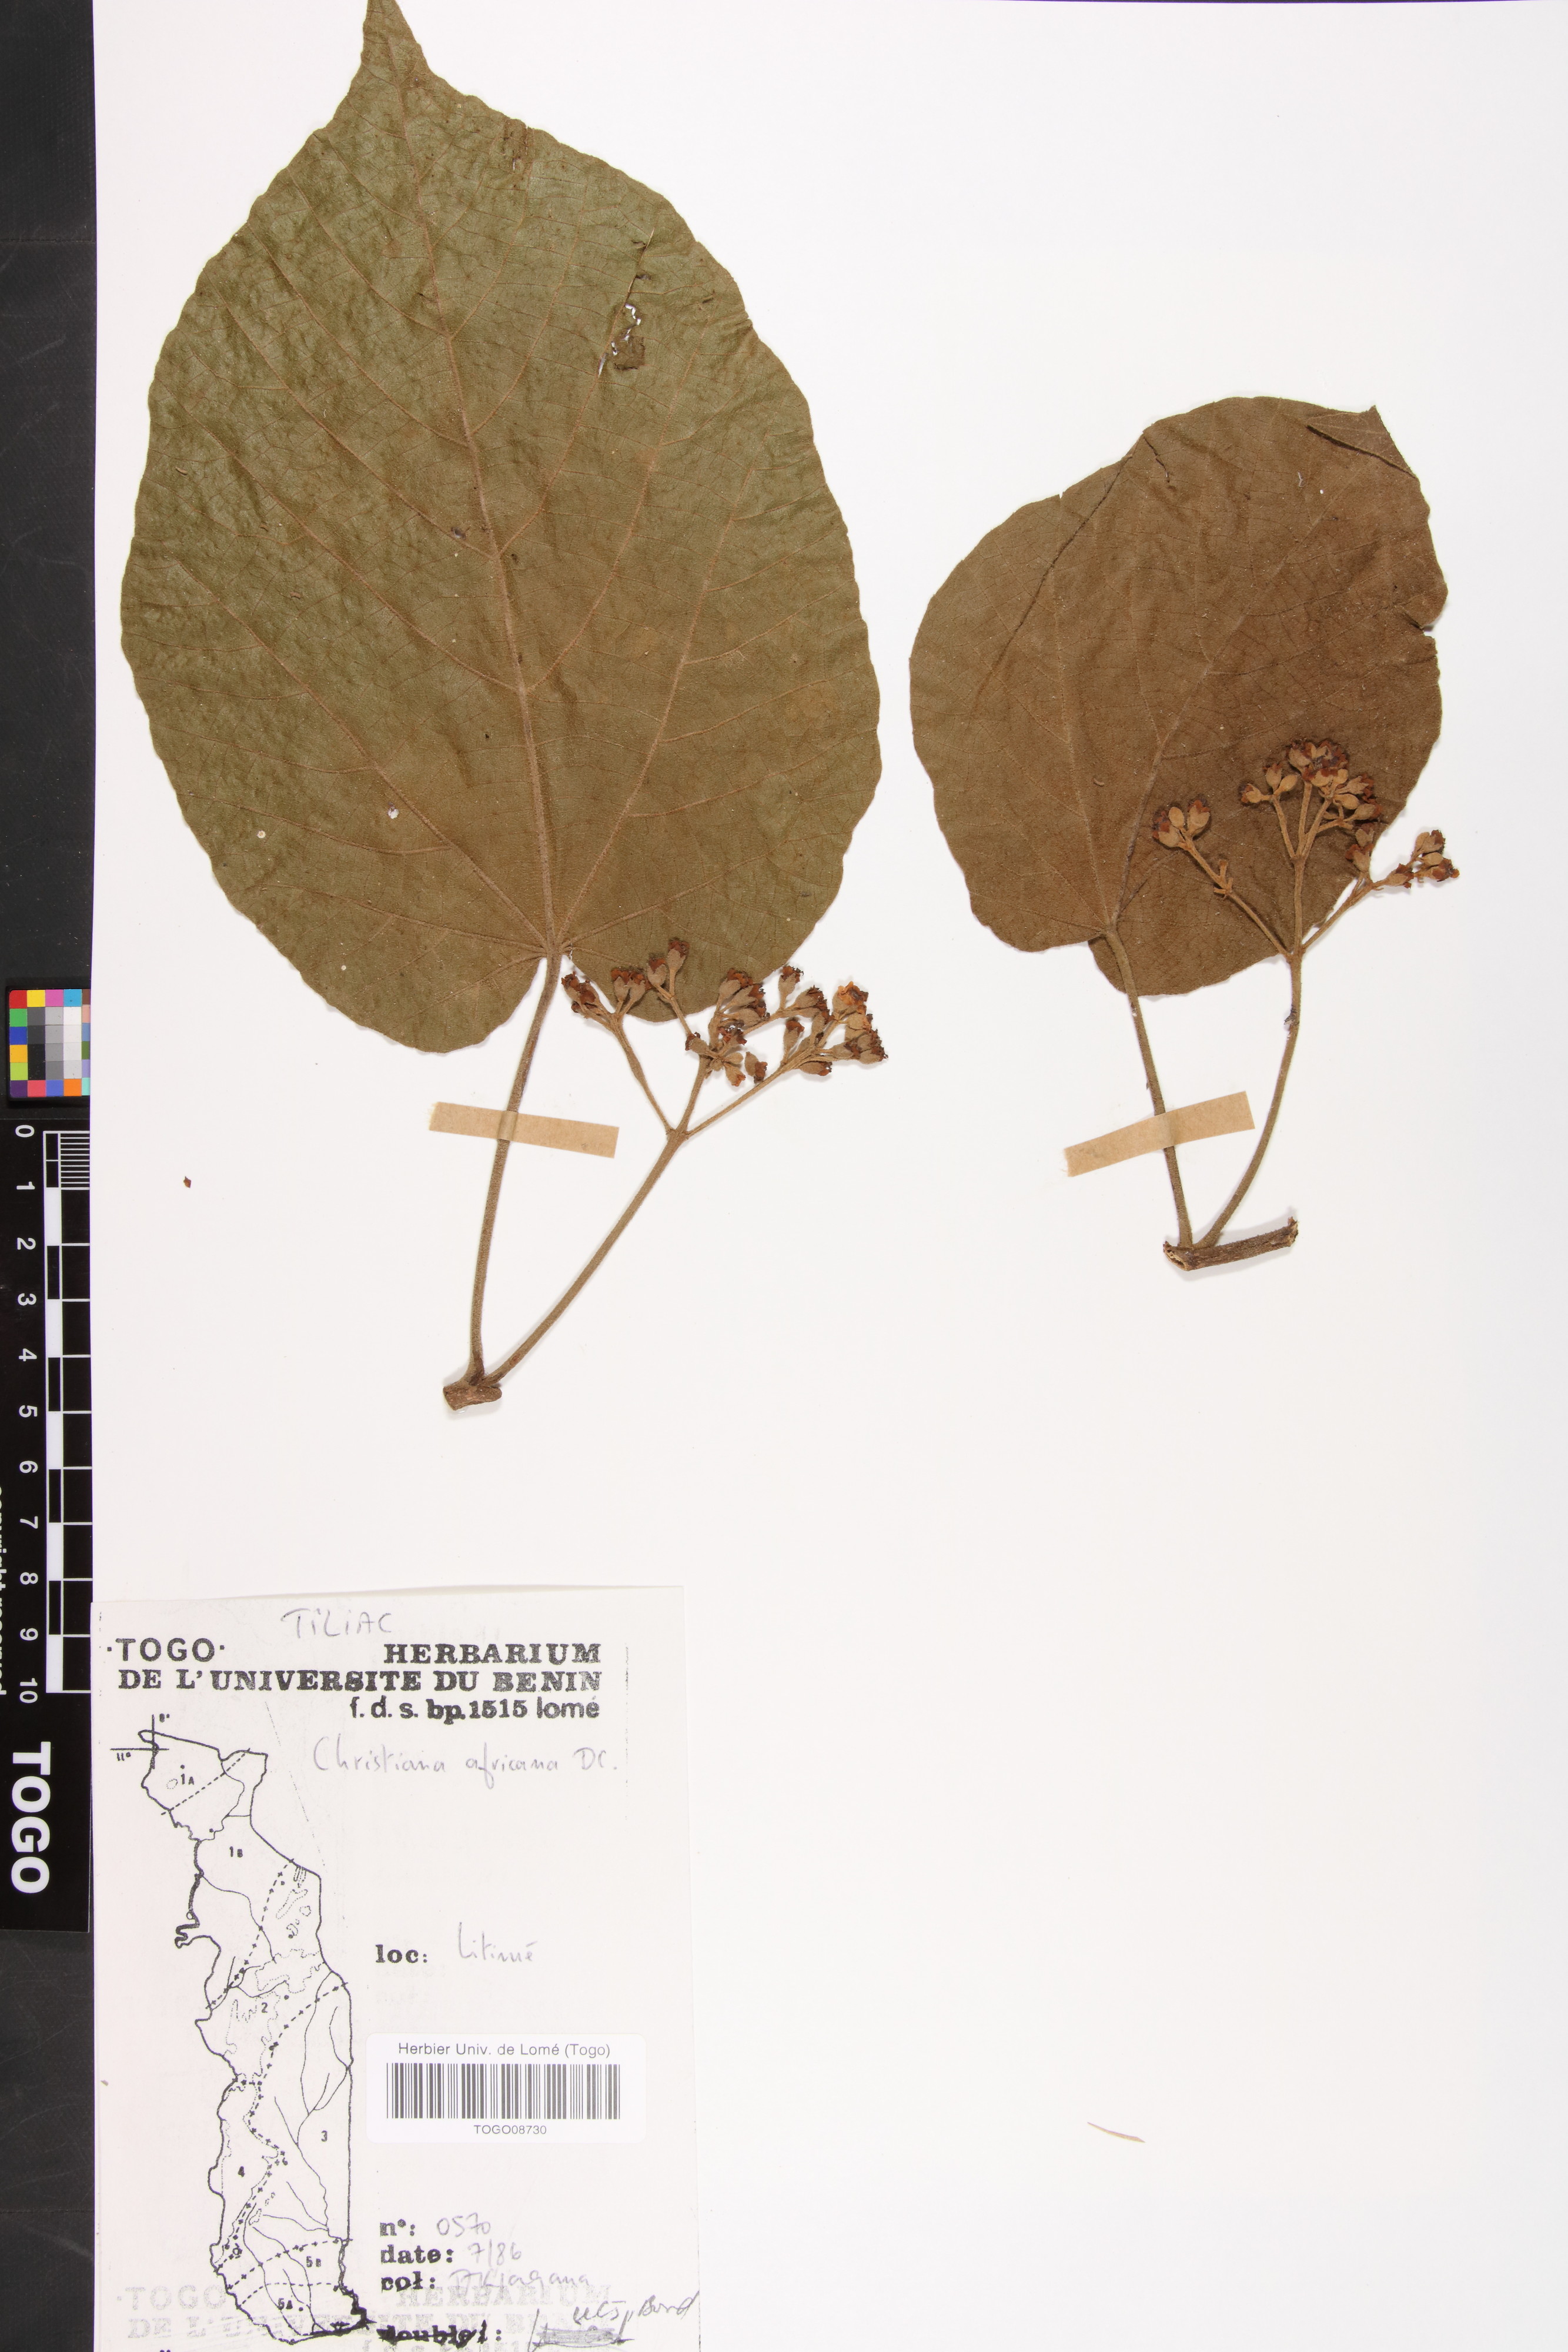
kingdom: Plantae
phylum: Tracheophyta
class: Magnoliopsida
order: Malvales
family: Malvaceae
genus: Christiana
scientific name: Christiana africana
